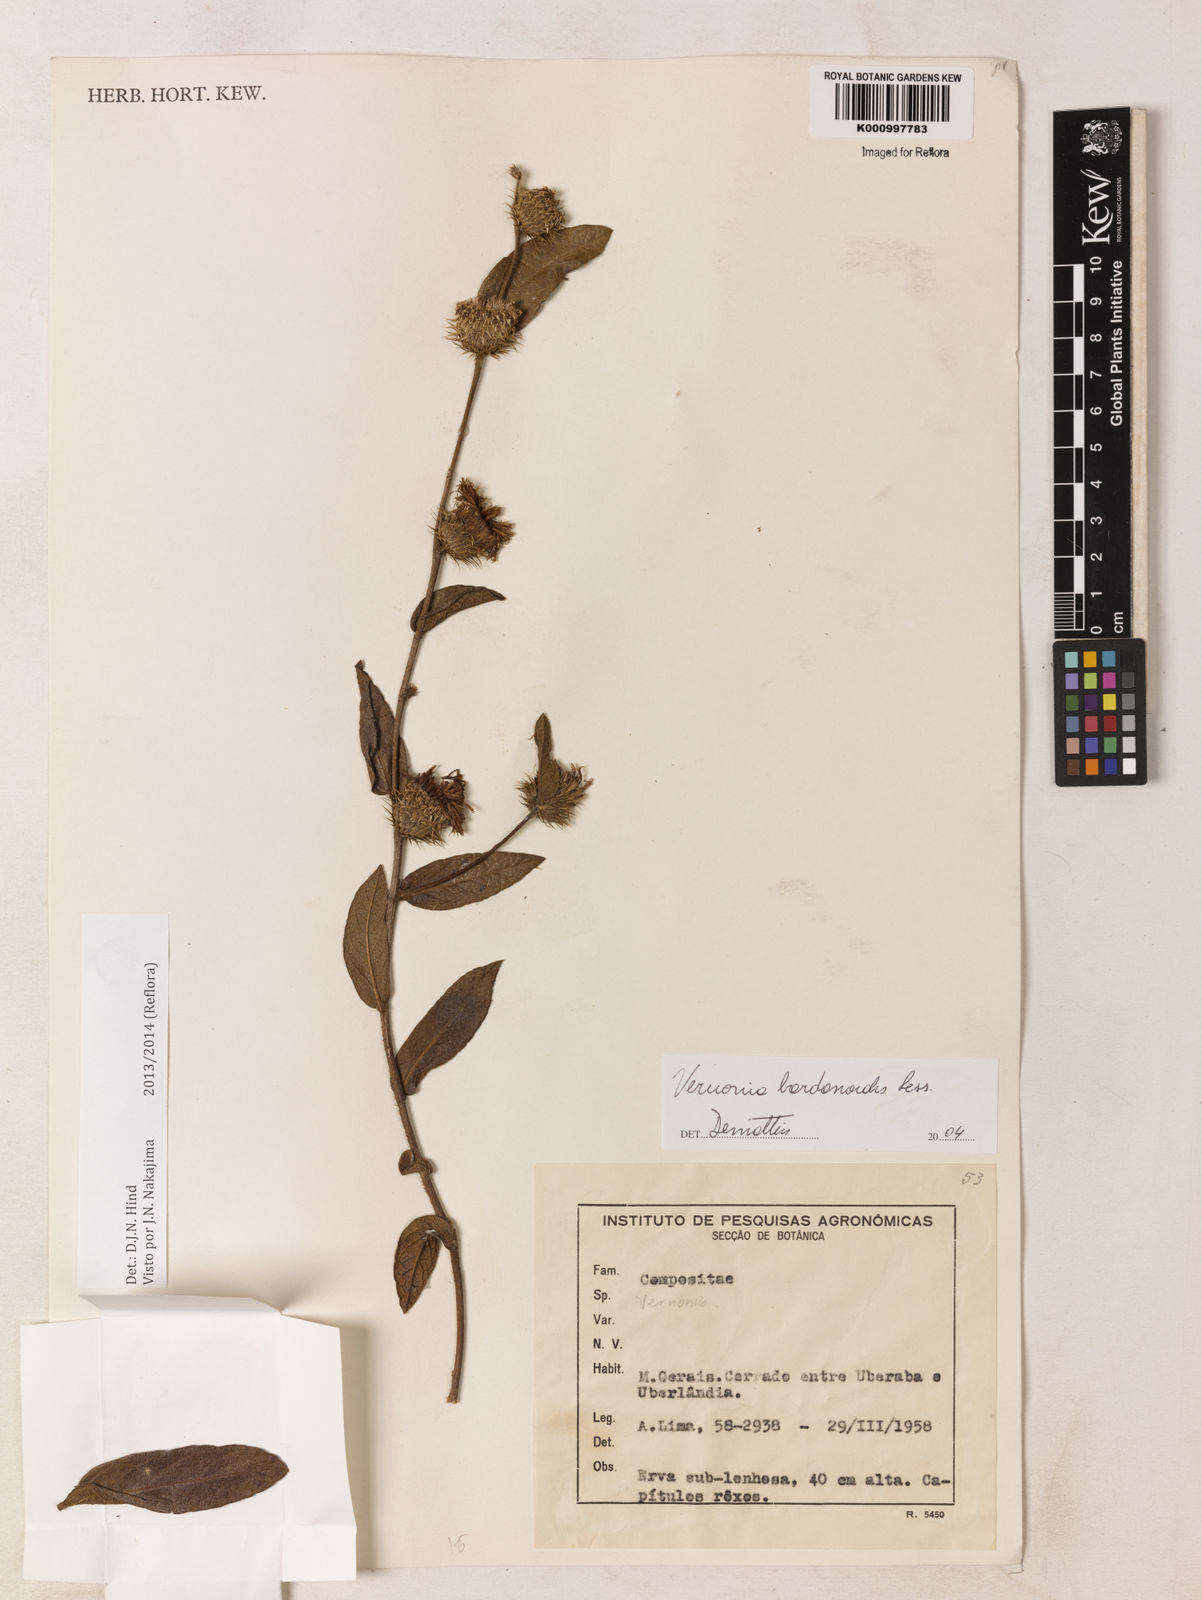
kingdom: Plantae
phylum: Tracheophyta
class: Magnoliopsida
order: Asterales
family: Asteraceae
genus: Lessingianthus
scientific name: Lessingianthus bardanioides
